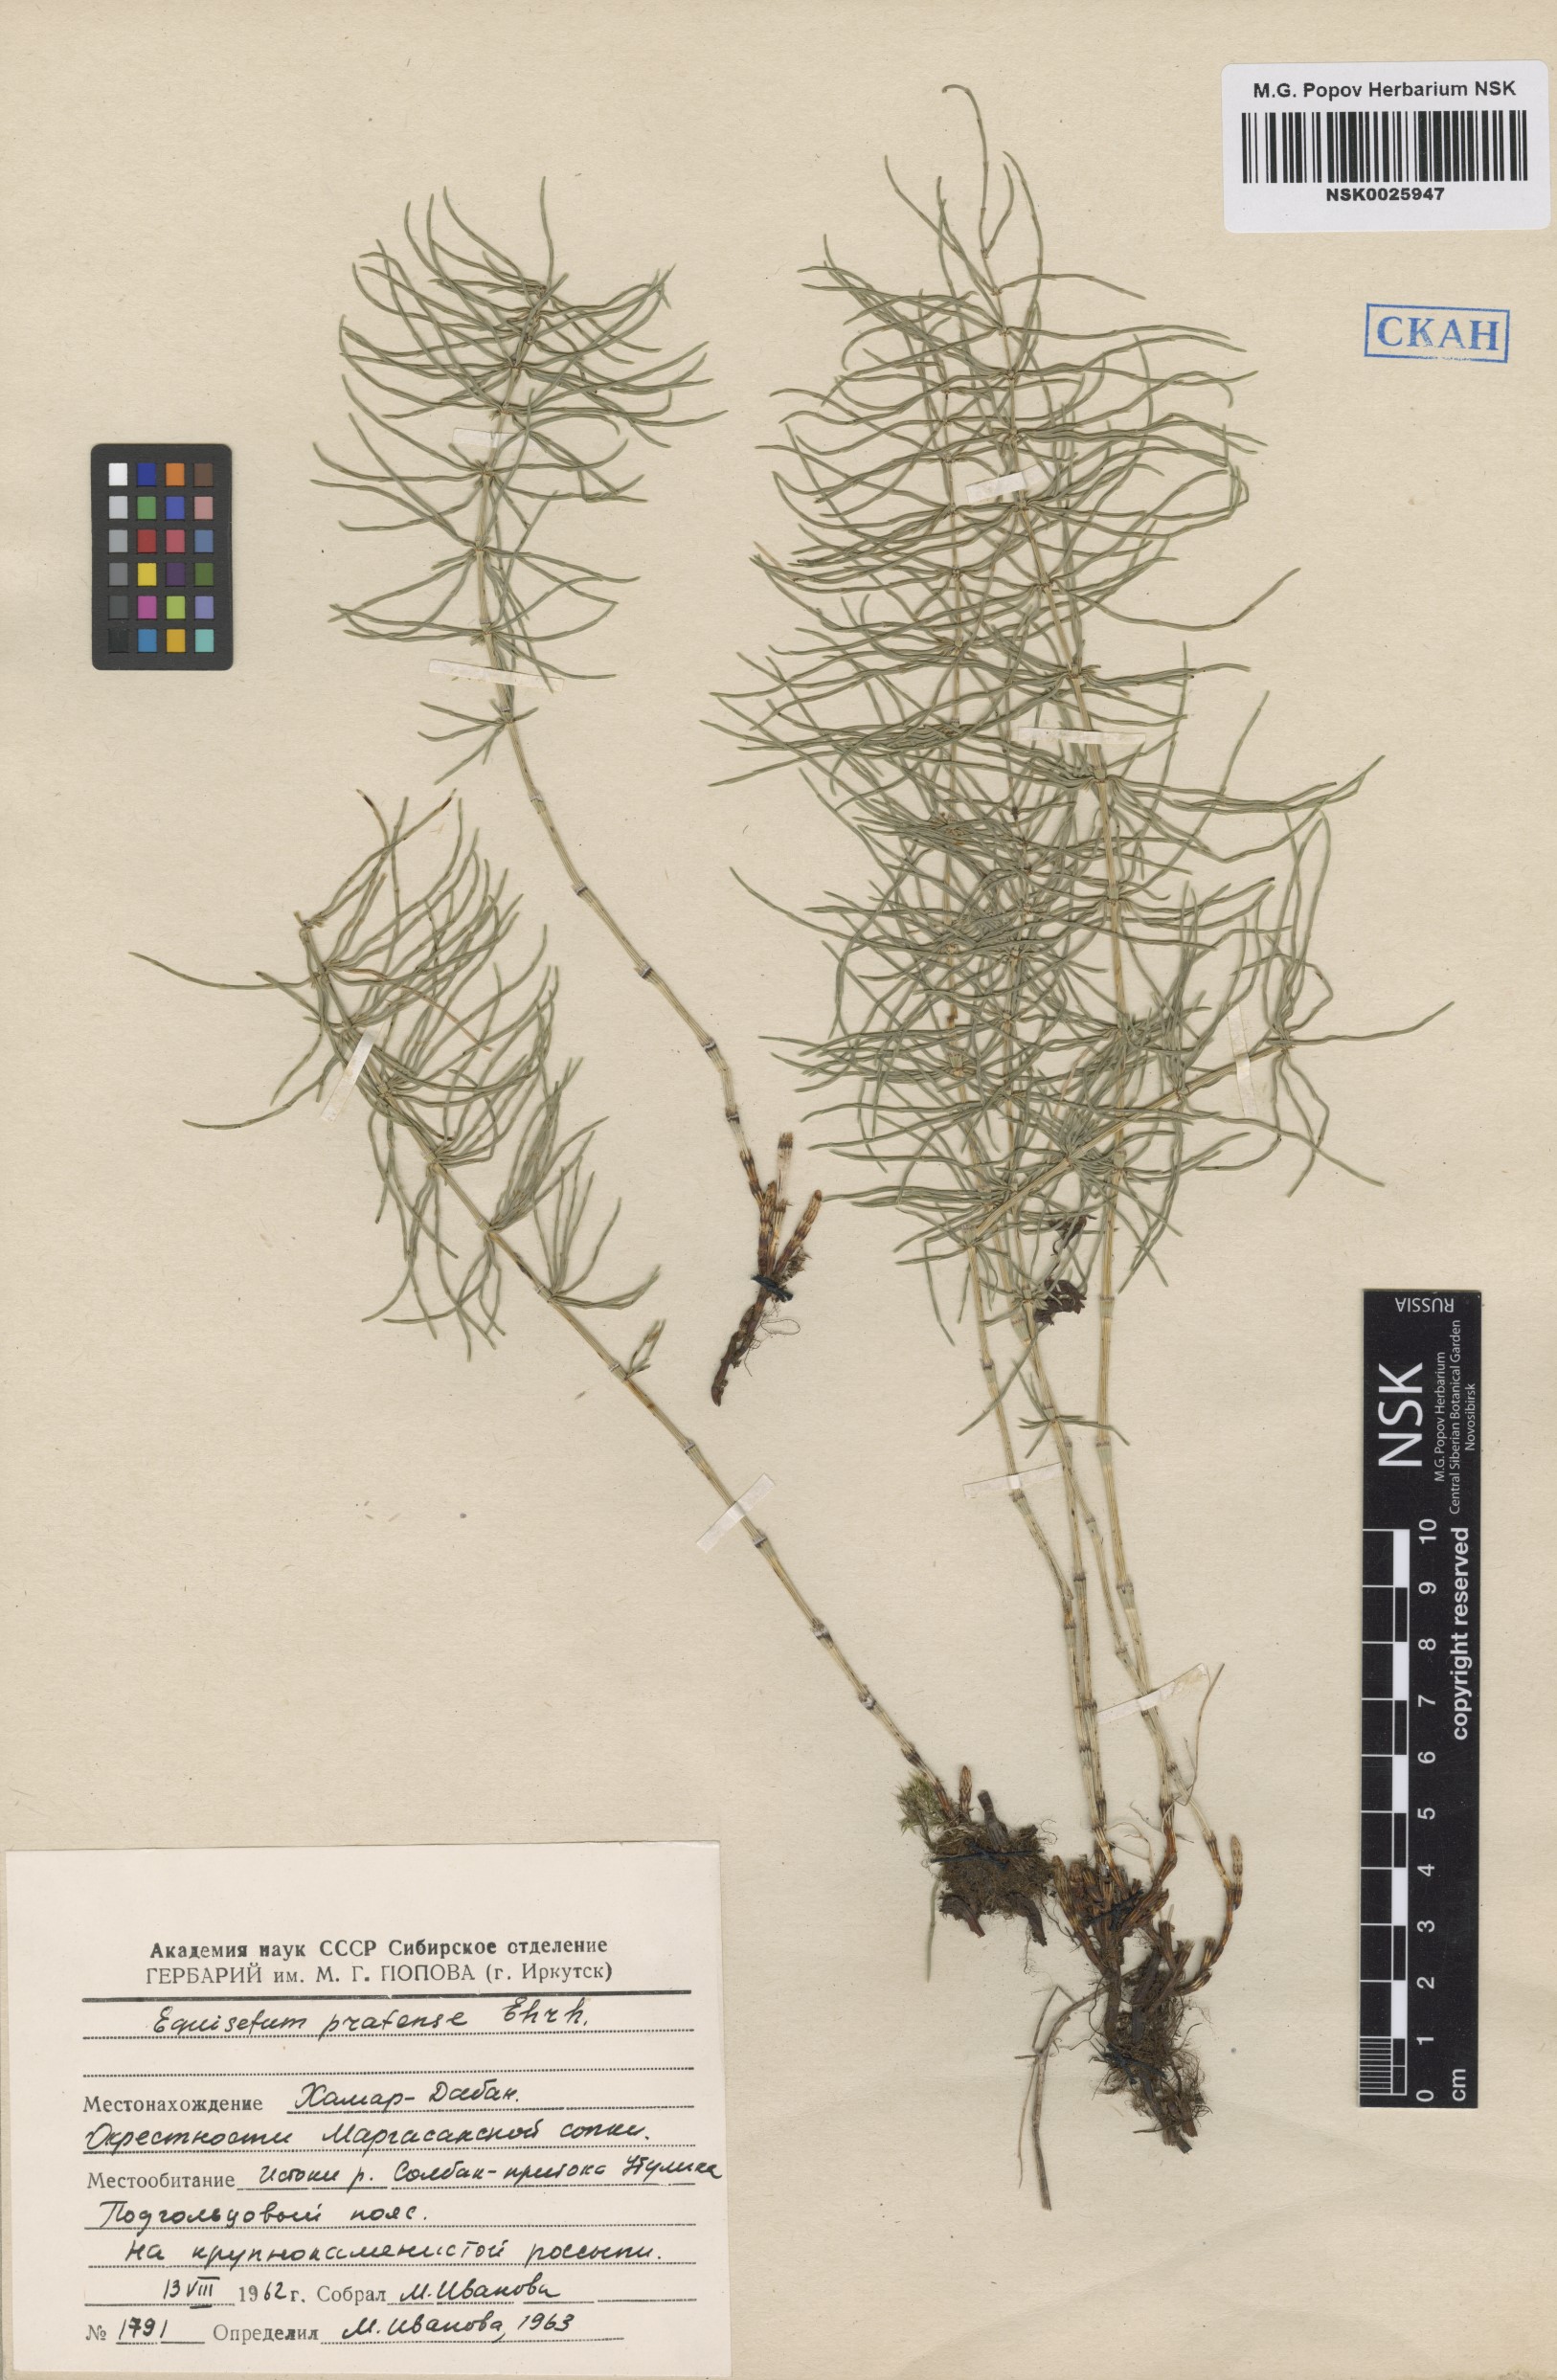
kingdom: Plantae
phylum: Tracheophyta
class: Polypodiopsida
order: Equisetales
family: Equisetaceae
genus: Equisetum
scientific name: Equisetum pratense
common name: Meadow horsetail
